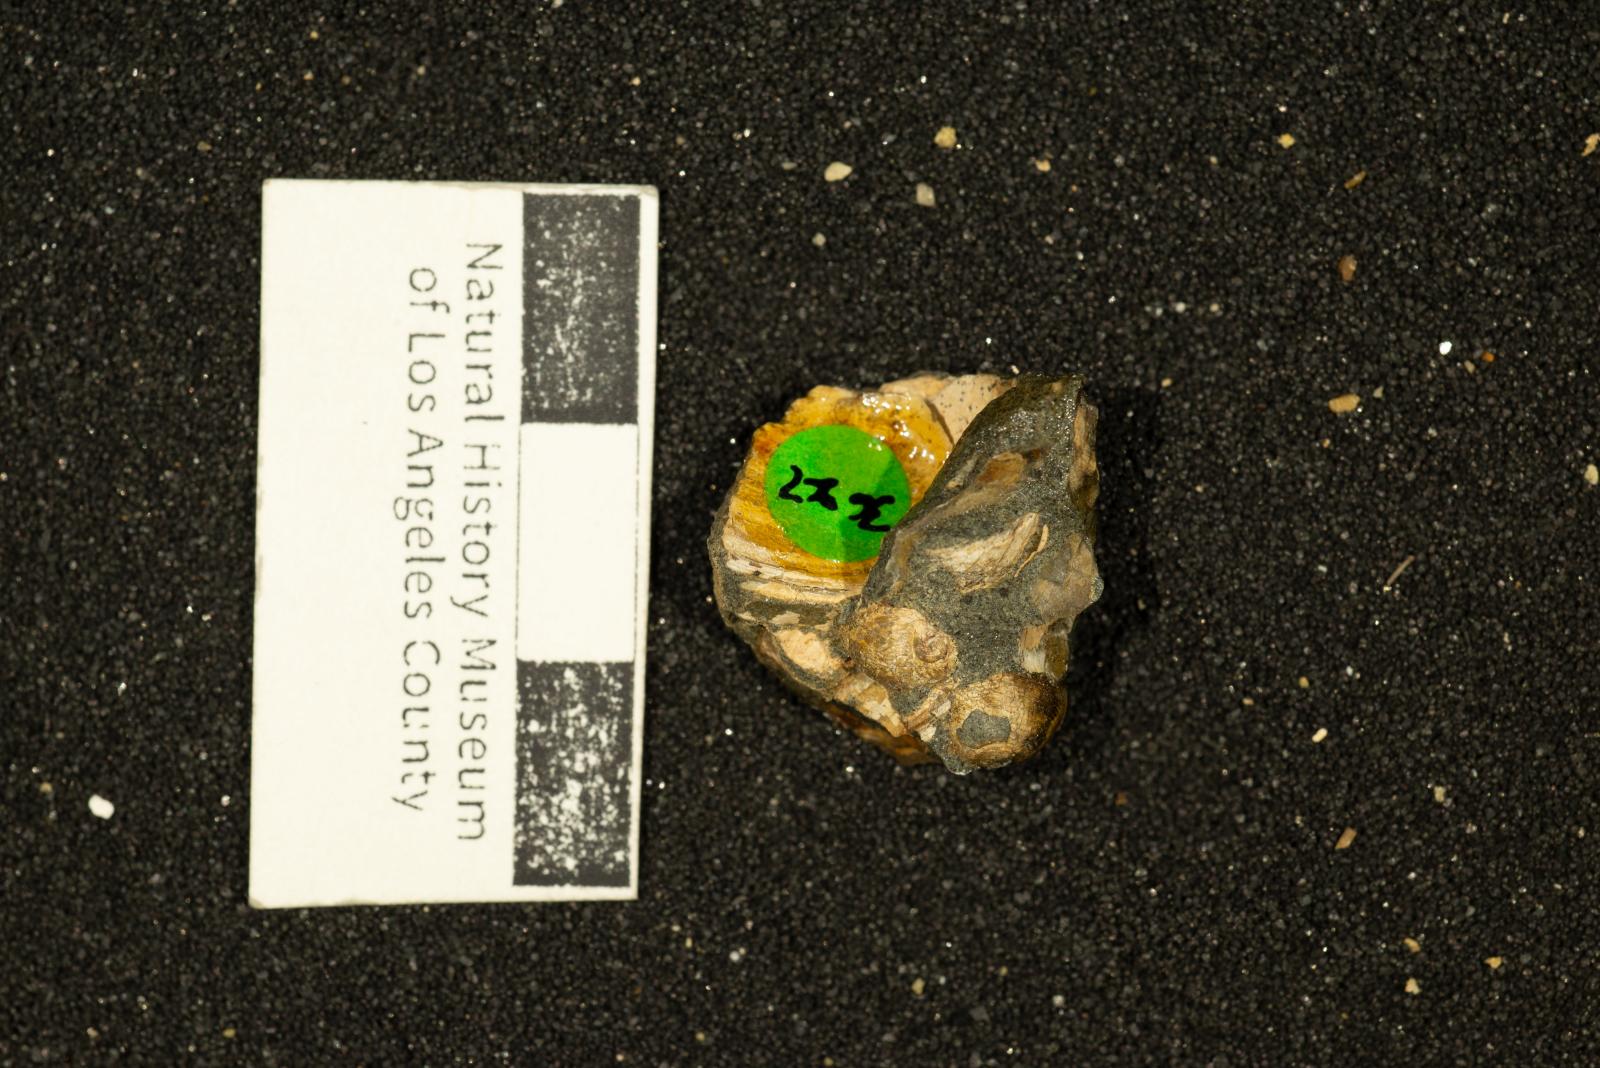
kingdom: Animalia
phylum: Mollusca
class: Bivalvia
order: Pectinida
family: Anomiidae
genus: Anomia
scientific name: Anomia vancouverensis
